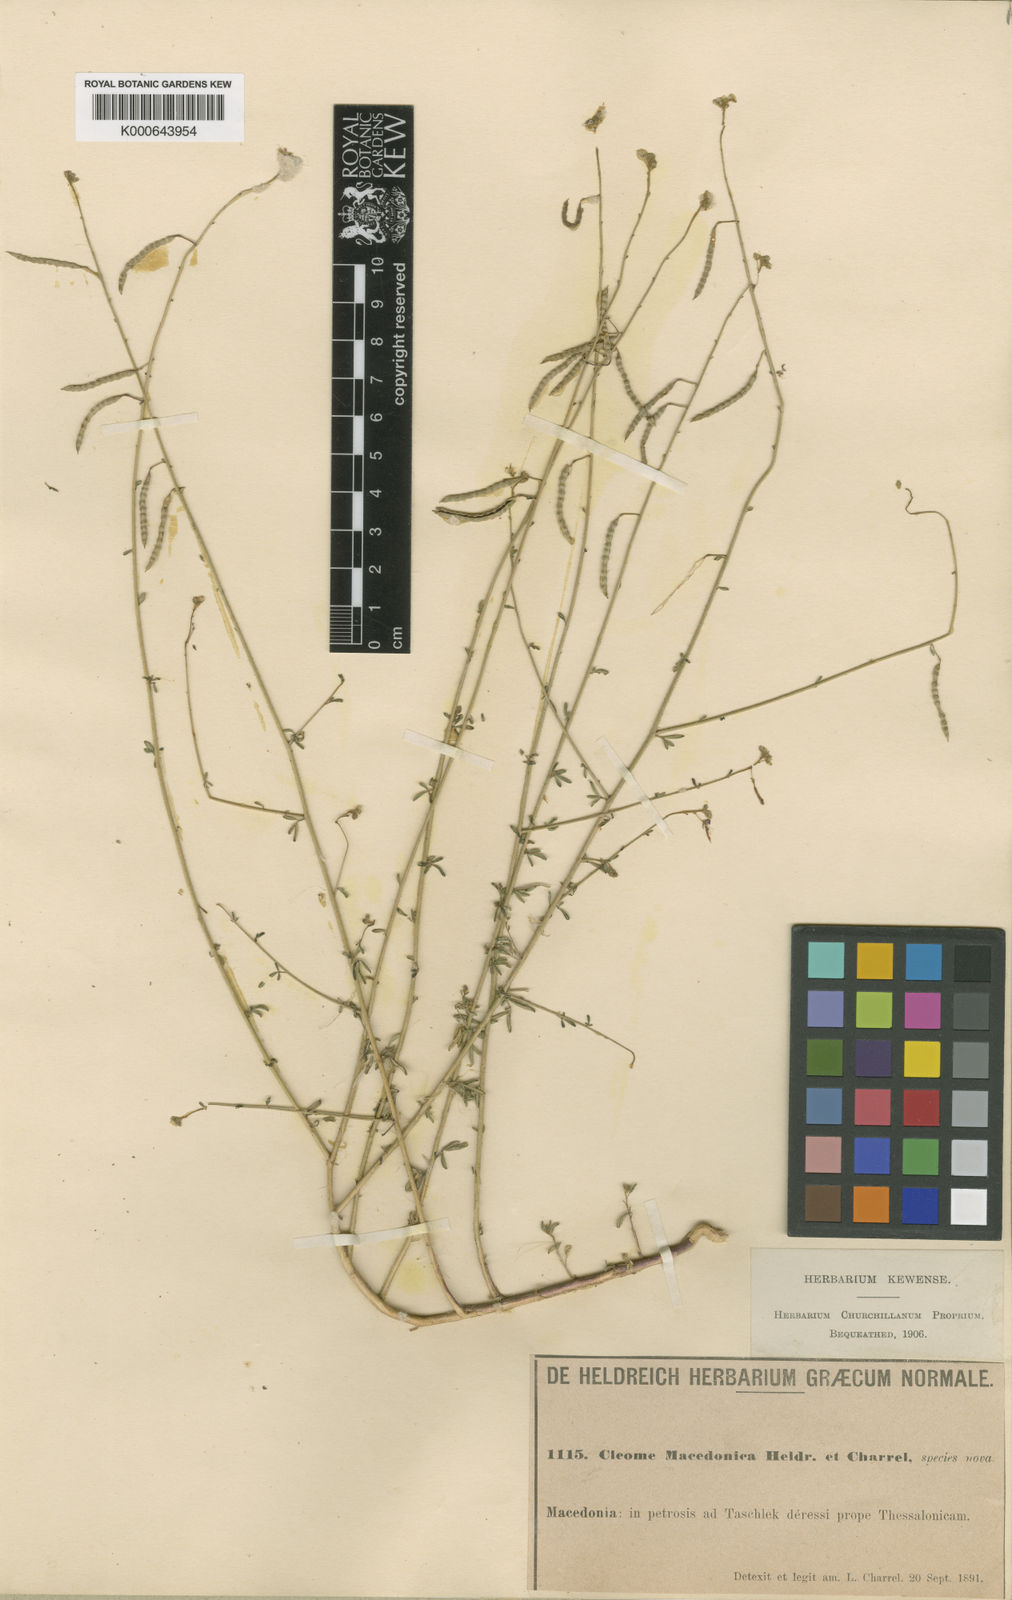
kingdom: Plantae
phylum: Tracheophyta
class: Magnoliopsida
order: Brassicales
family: Cleomaceae
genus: Cleome
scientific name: Cleome ornithopodioides
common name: Bird spiderflower
